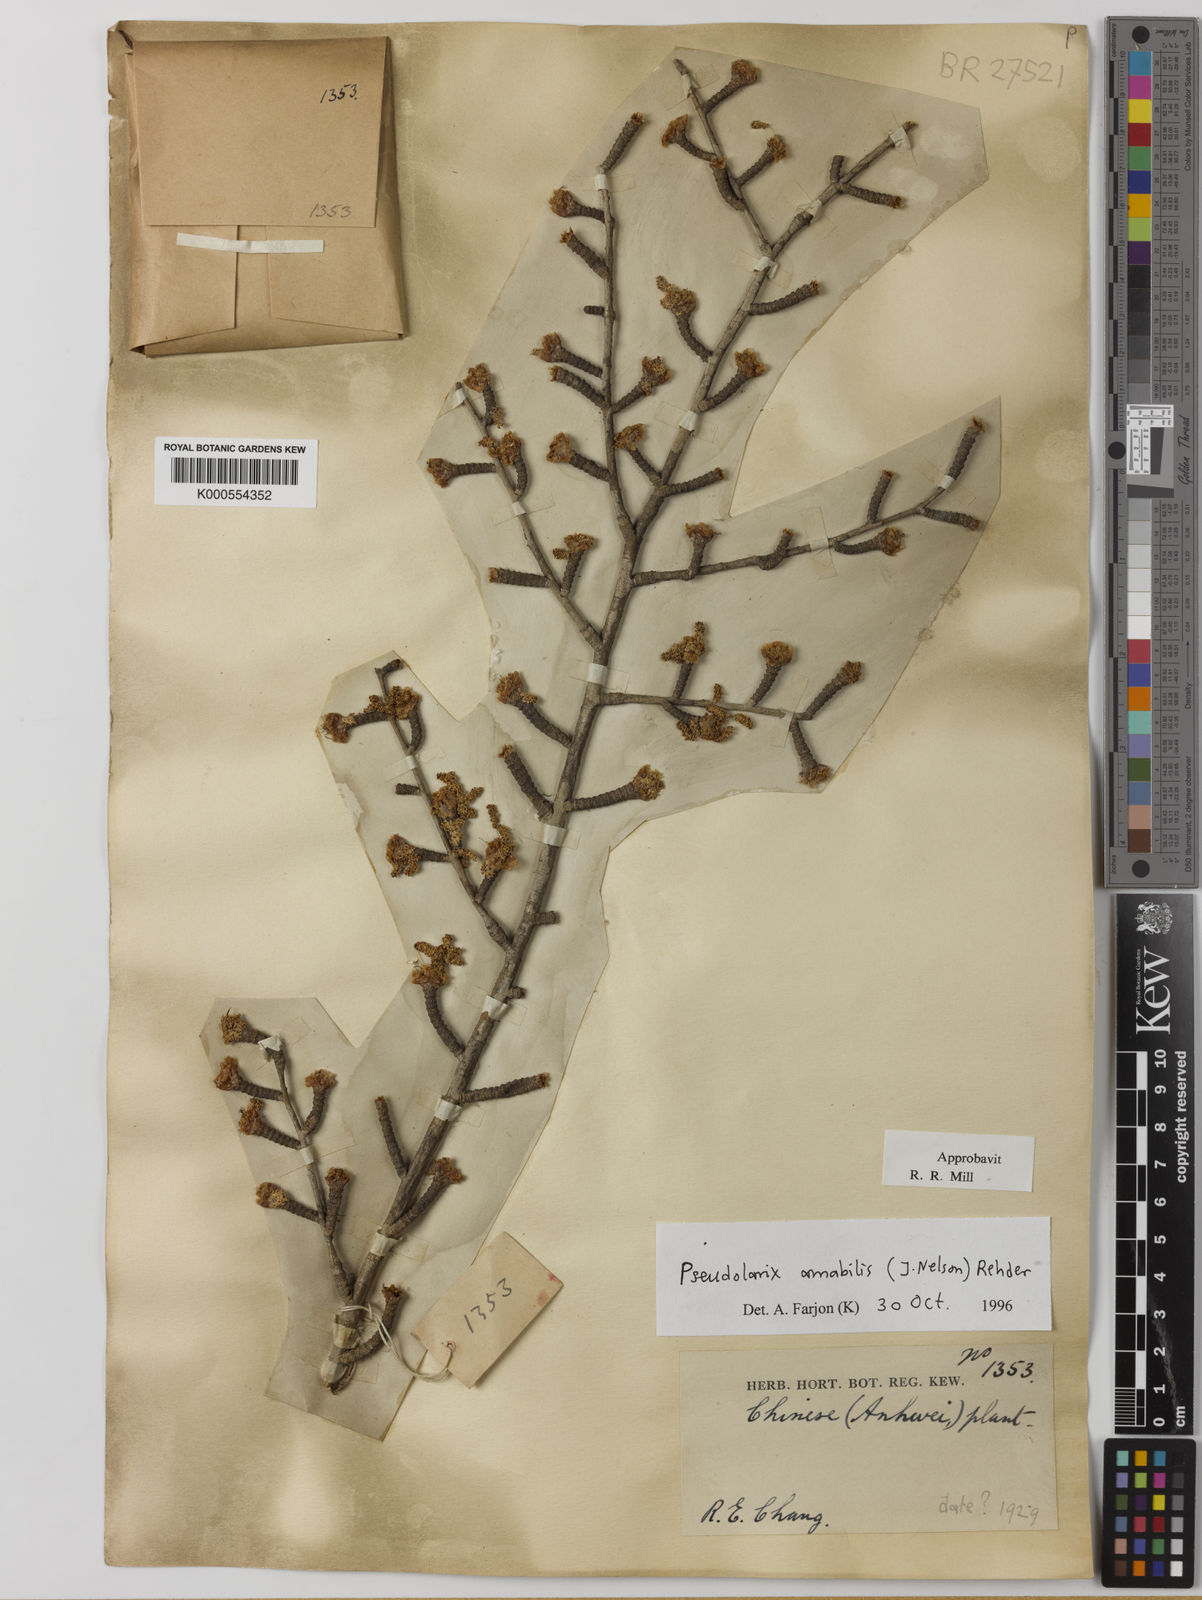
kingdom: Plantae
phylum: Tracheophyta
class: Pinopsida
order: Pinales
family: Pinaceae
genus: Pseudolarix
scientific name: Pseudolarix amabilis
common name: Chinese golden larch
